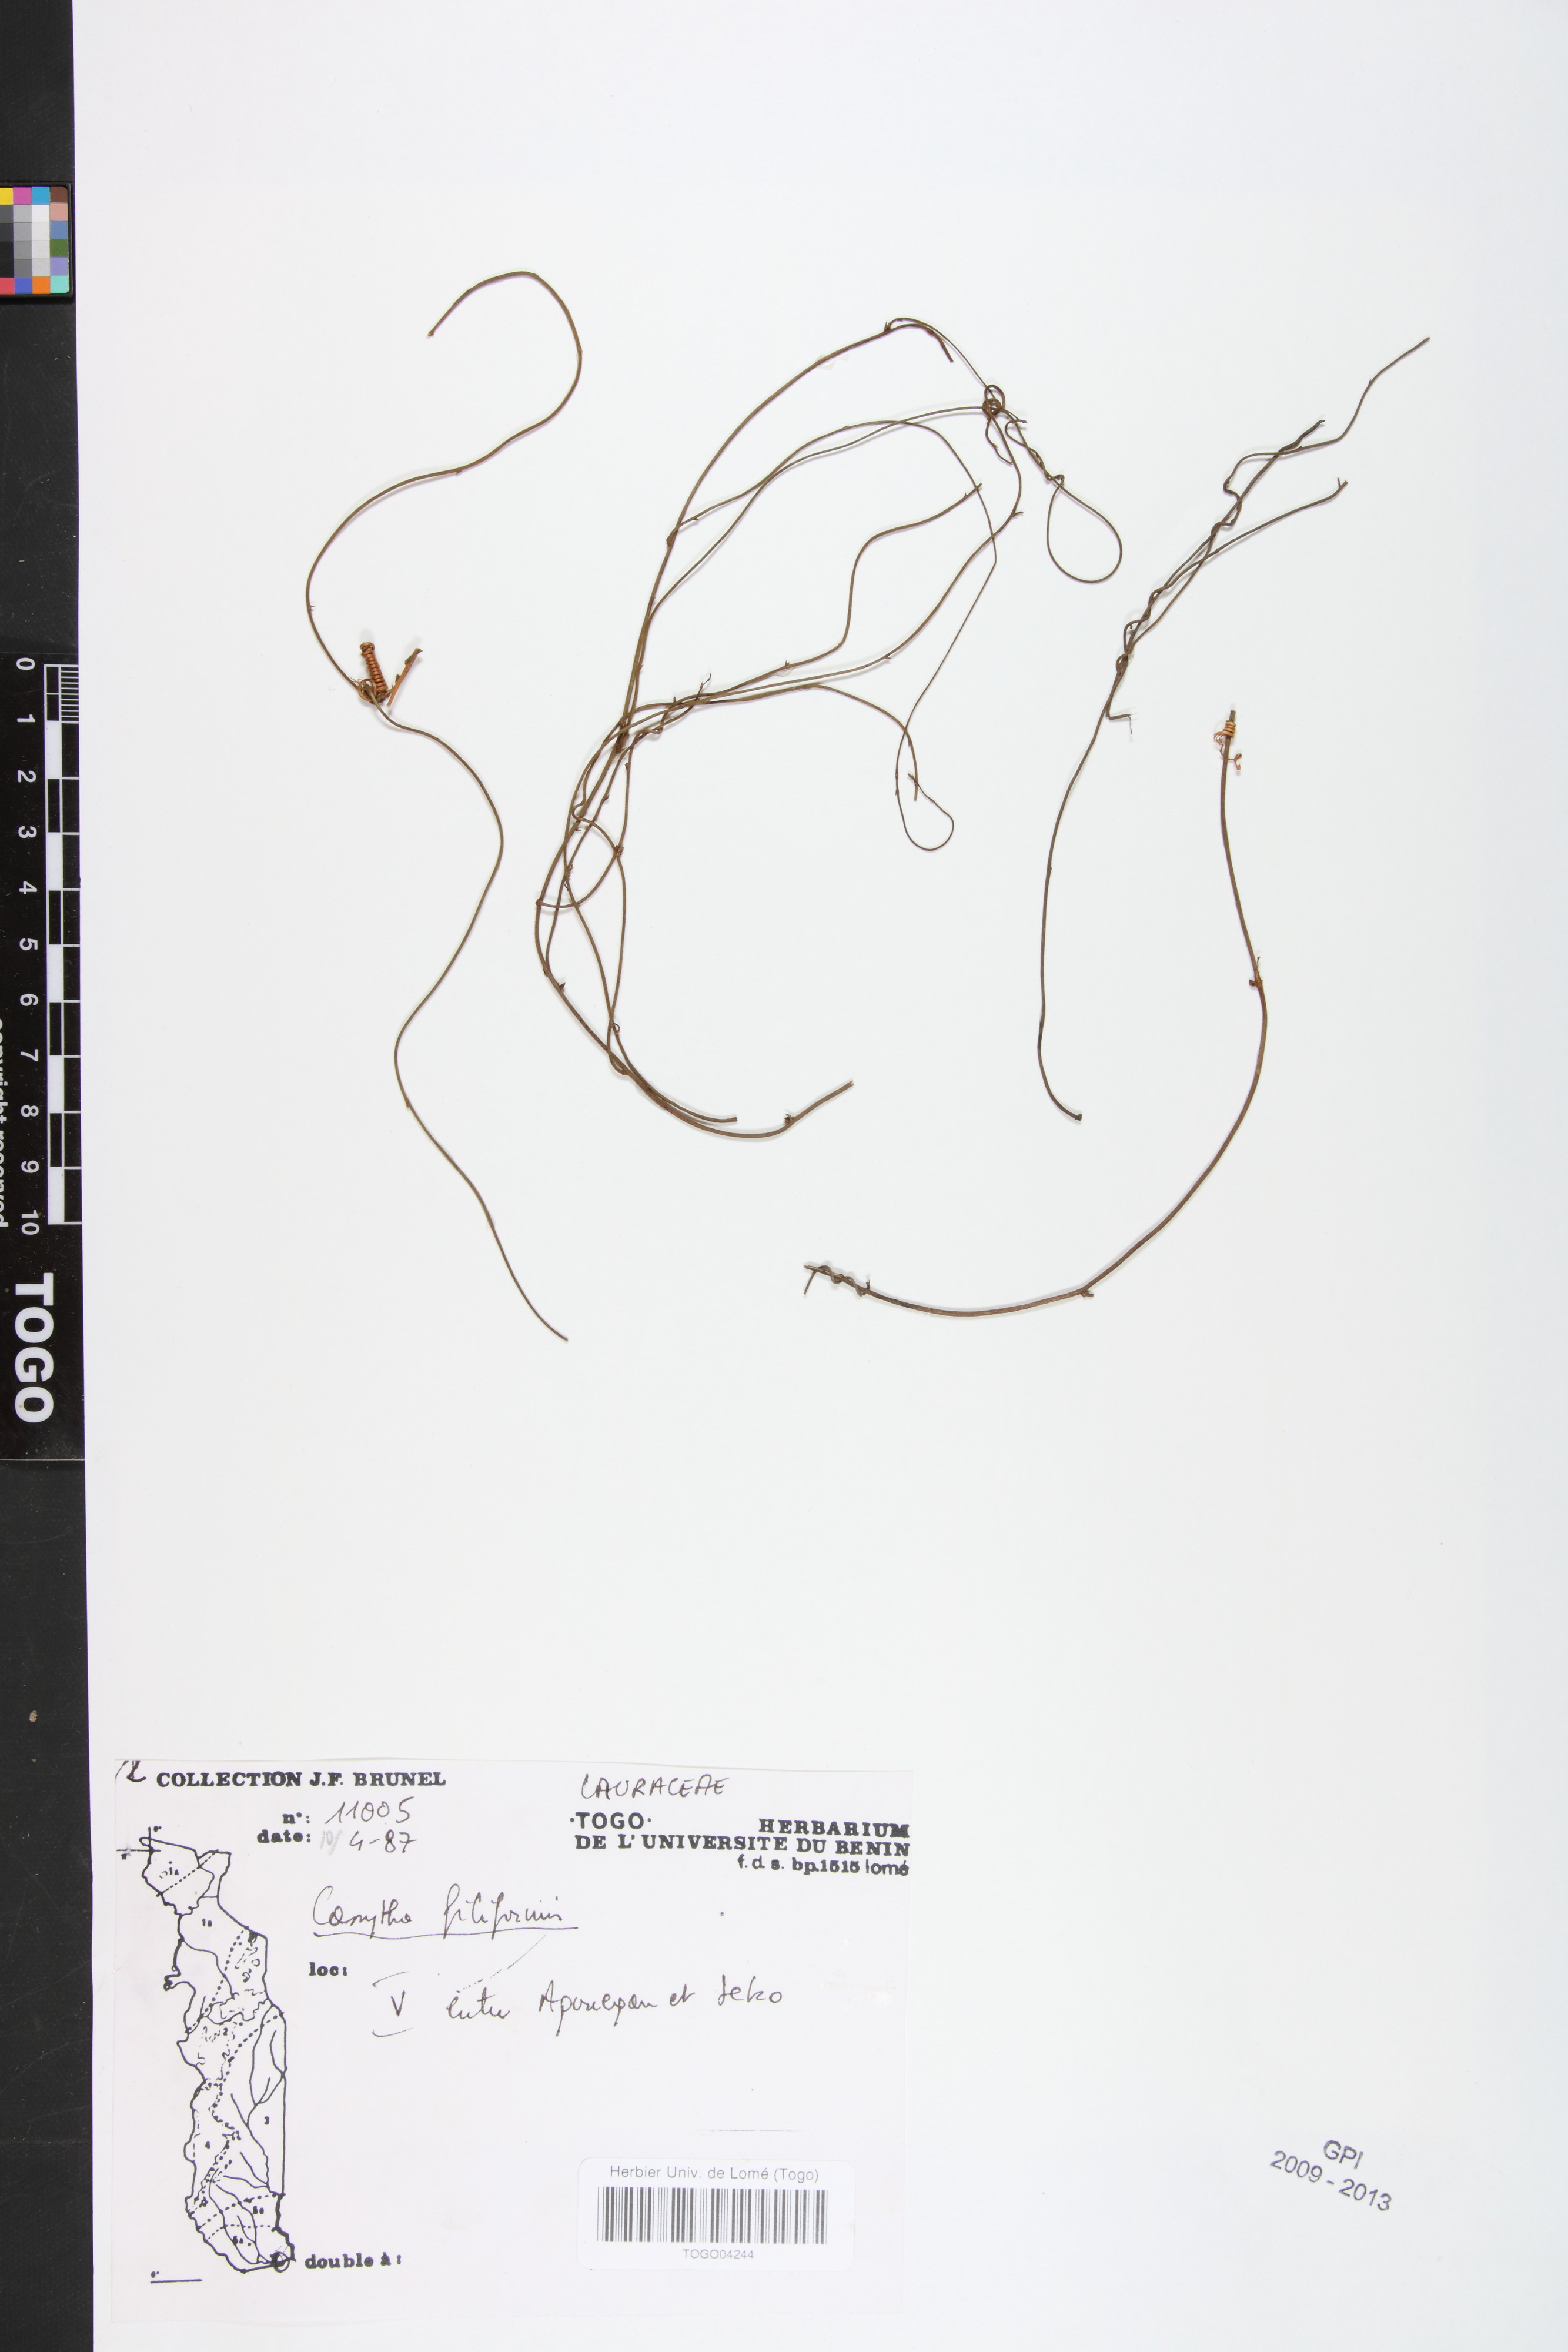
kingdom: Plantae
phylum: Tracheophyta
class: Magnoliopsida
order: Laurales
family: Lauraceae
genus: Cassytha
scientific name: Cassytha filiformis
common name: Dodder-laurel
